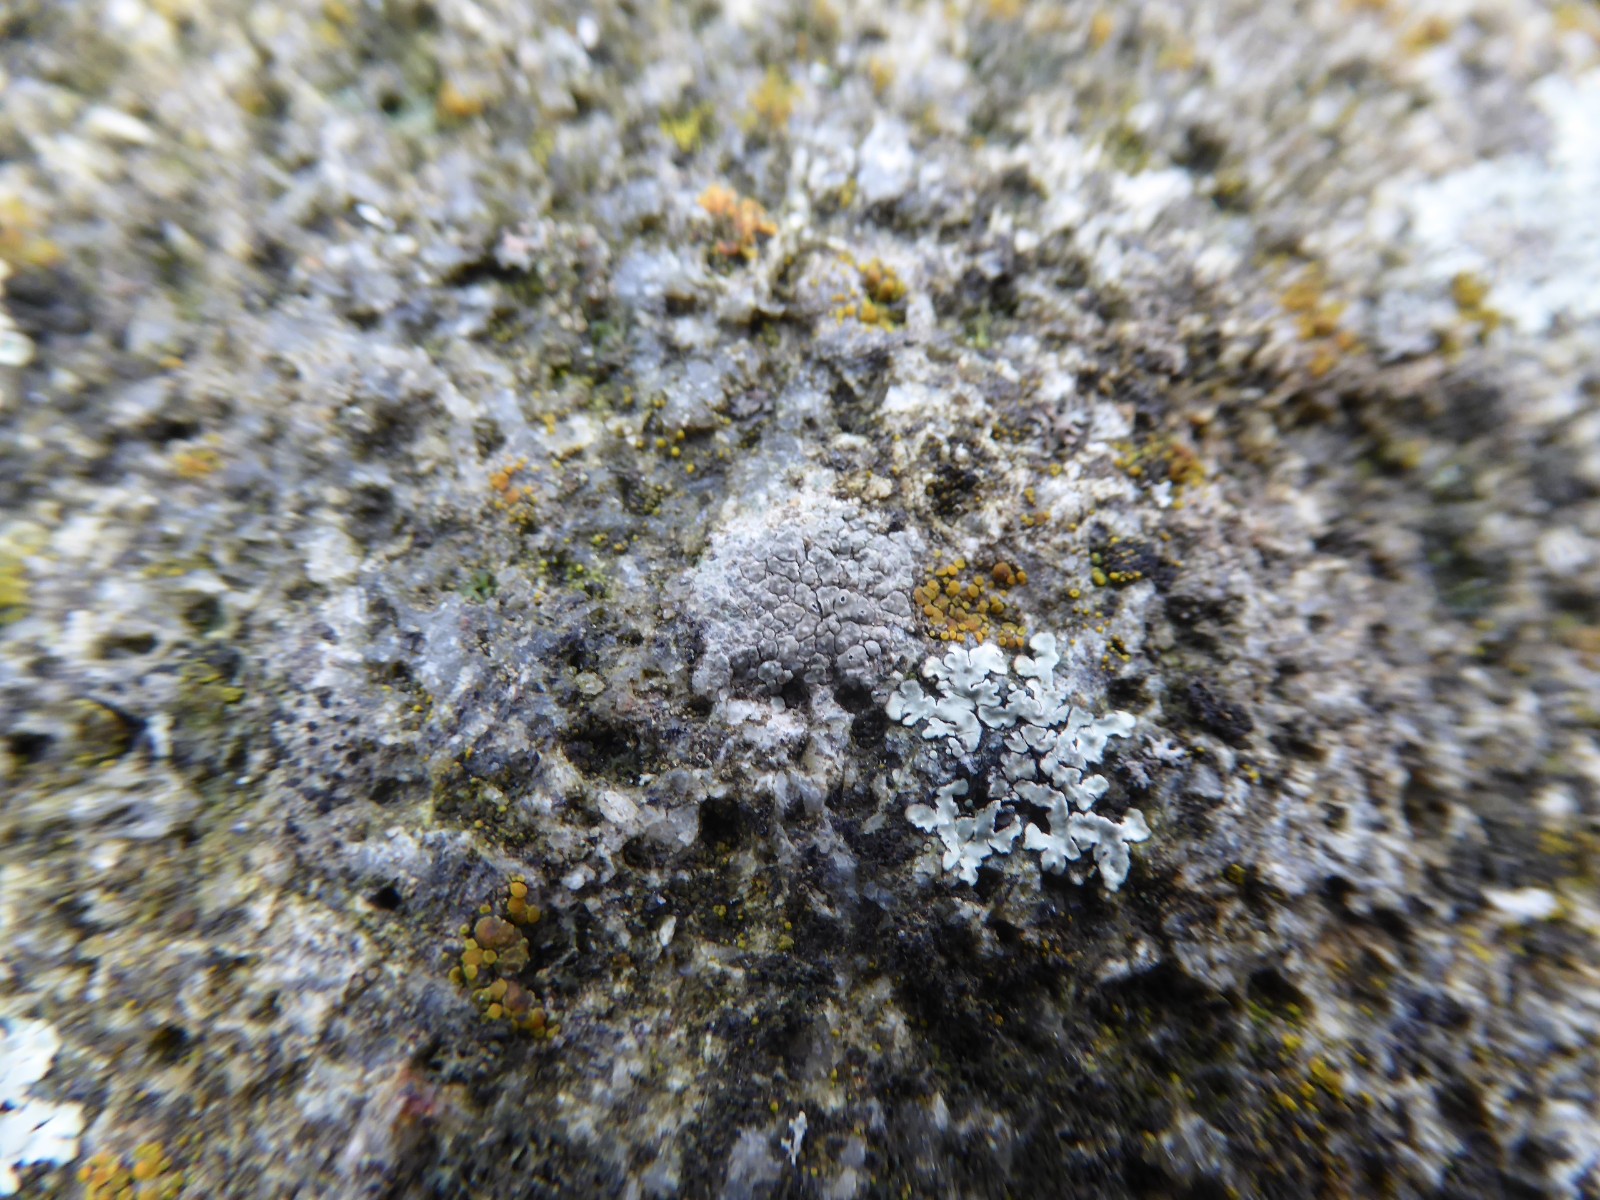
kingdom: Fungi
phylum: Ascomycota
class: Lecanoromycetes
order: Pertusariales
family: Megasporaceae
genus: Circinaria
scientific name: Circinaria contorta
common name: indviklet hulskivelav
